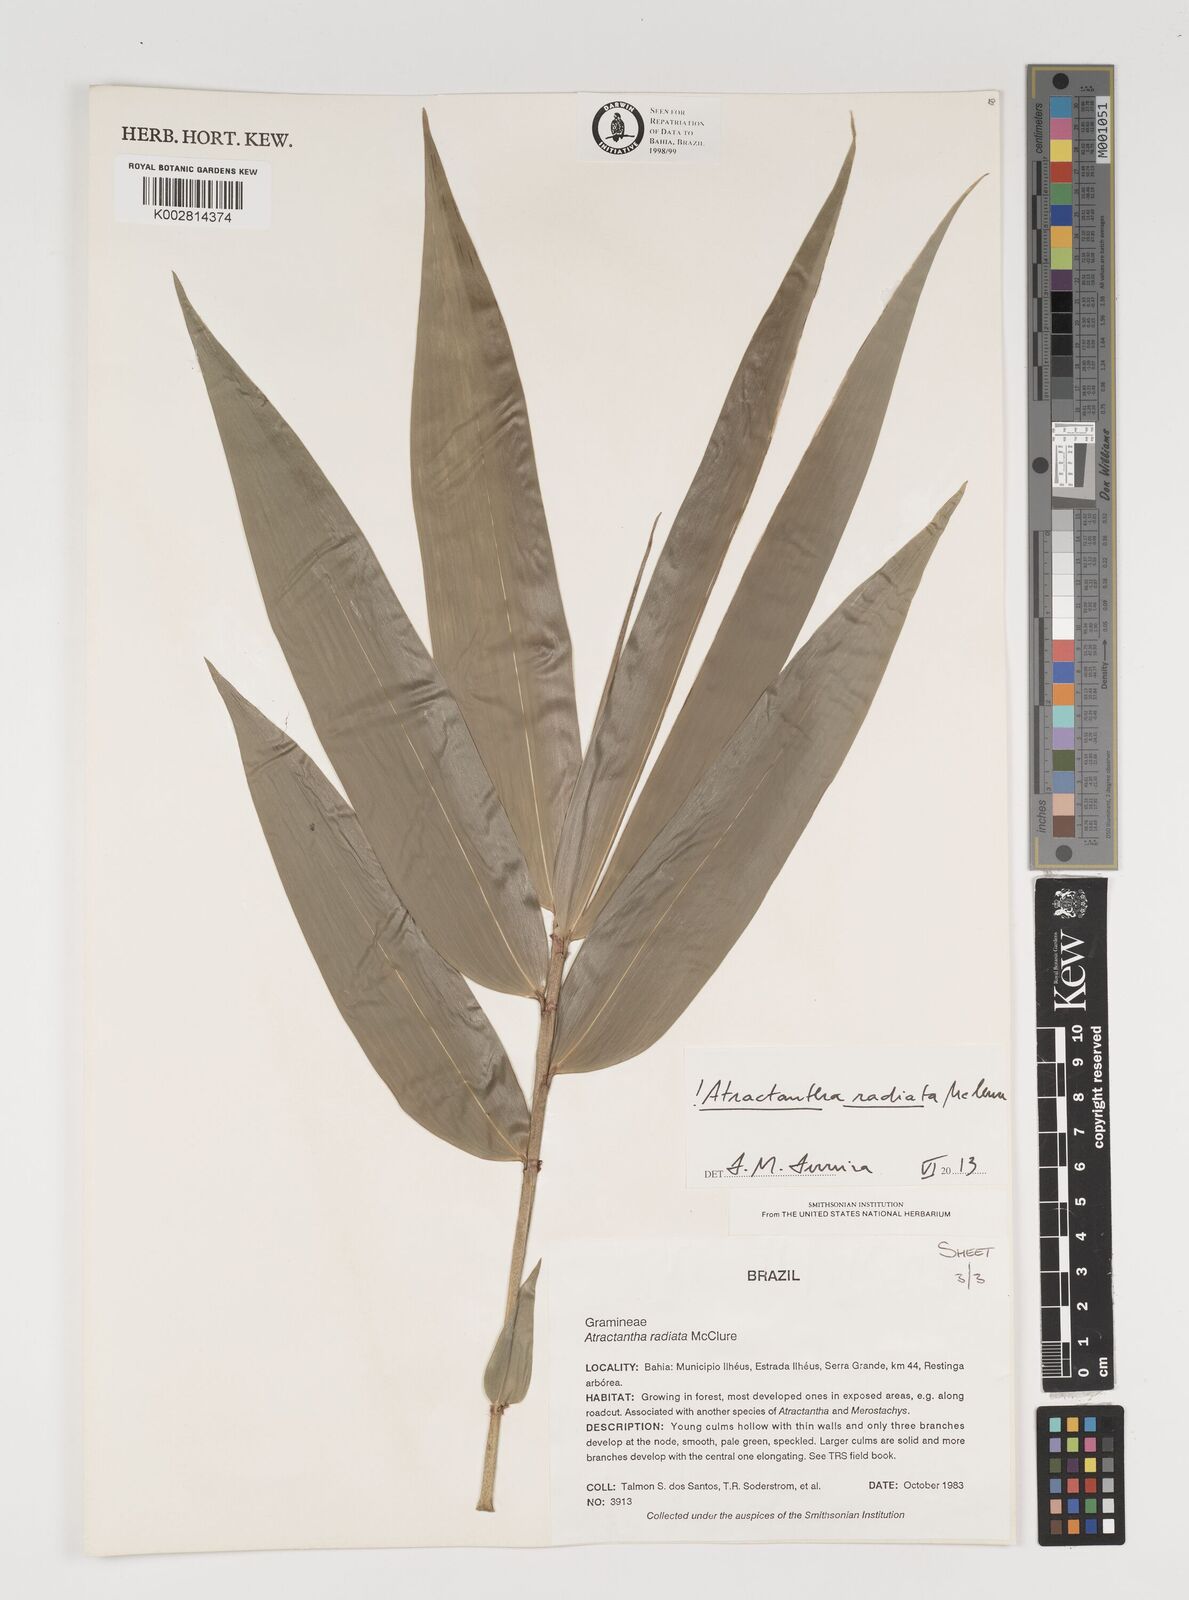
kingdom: Plantae
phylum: Tracheophyta
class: Liliopsida
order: Poales
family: Poaceae
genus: Atractantha
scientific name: Atractantha radiata
